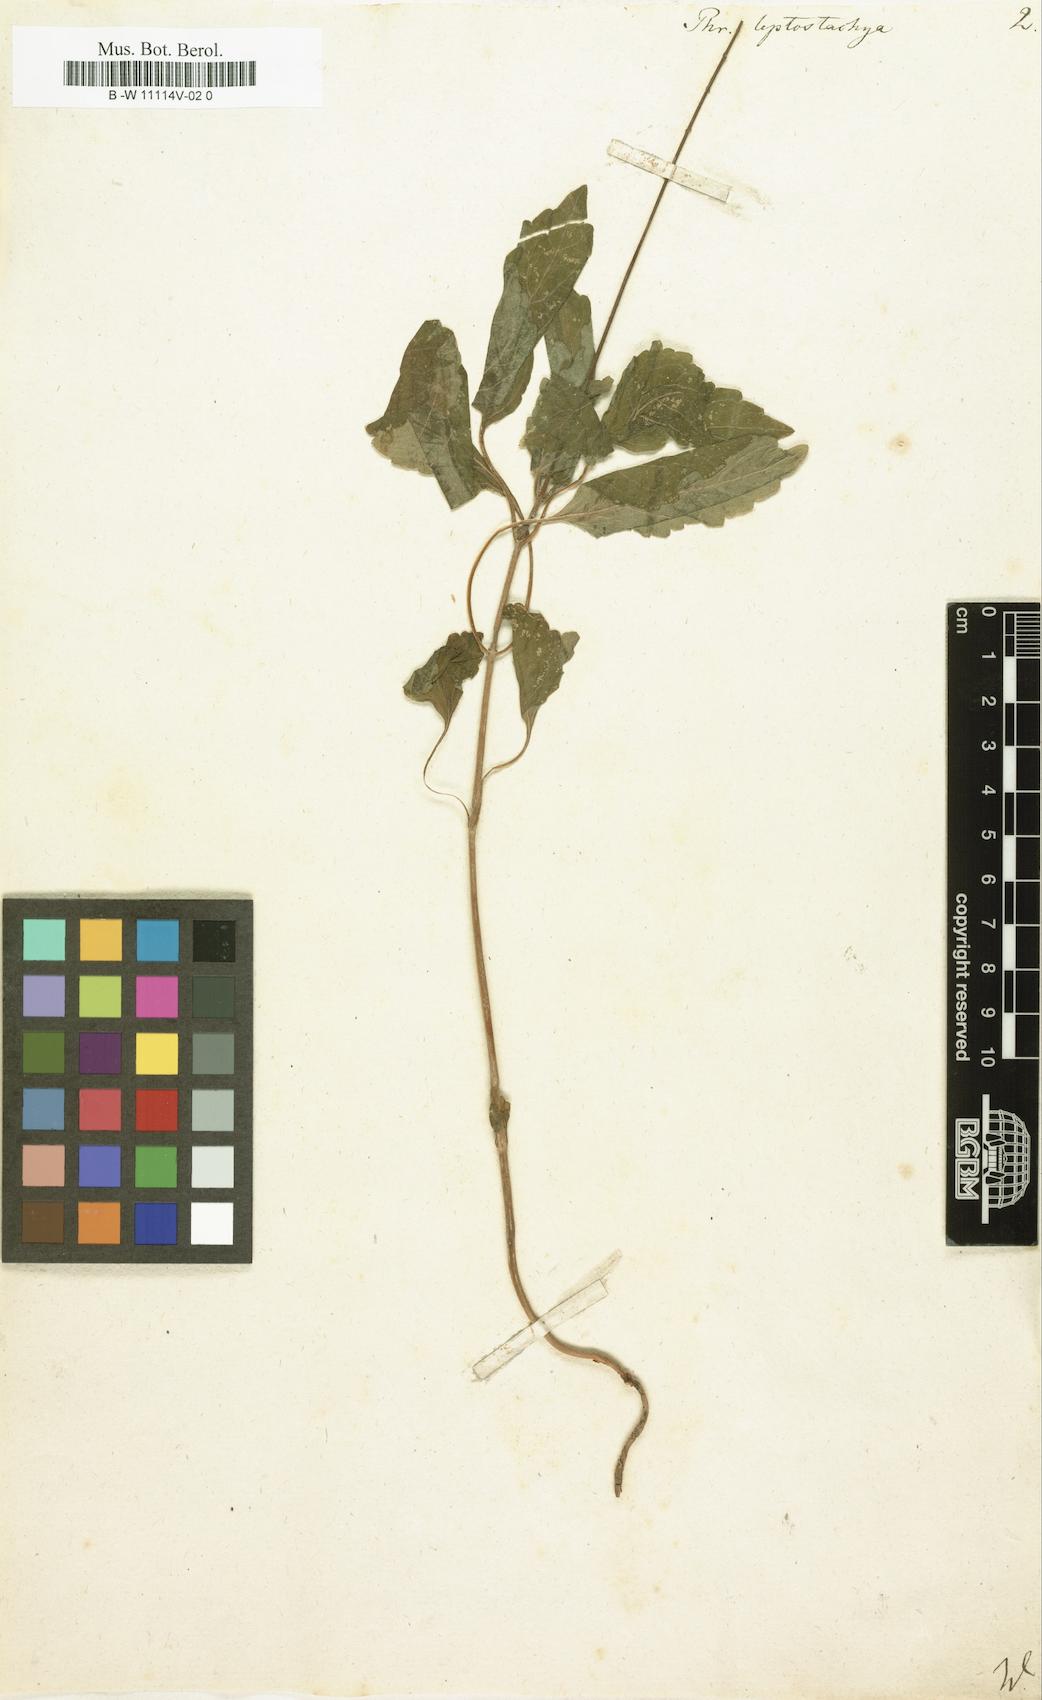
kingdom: Plantae
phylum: Tracheophyta
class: Magnoliopsida
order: Lamiales
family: Phrymaceae
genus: Phryma
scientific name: Phryma leptostachya
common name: American lopseed
